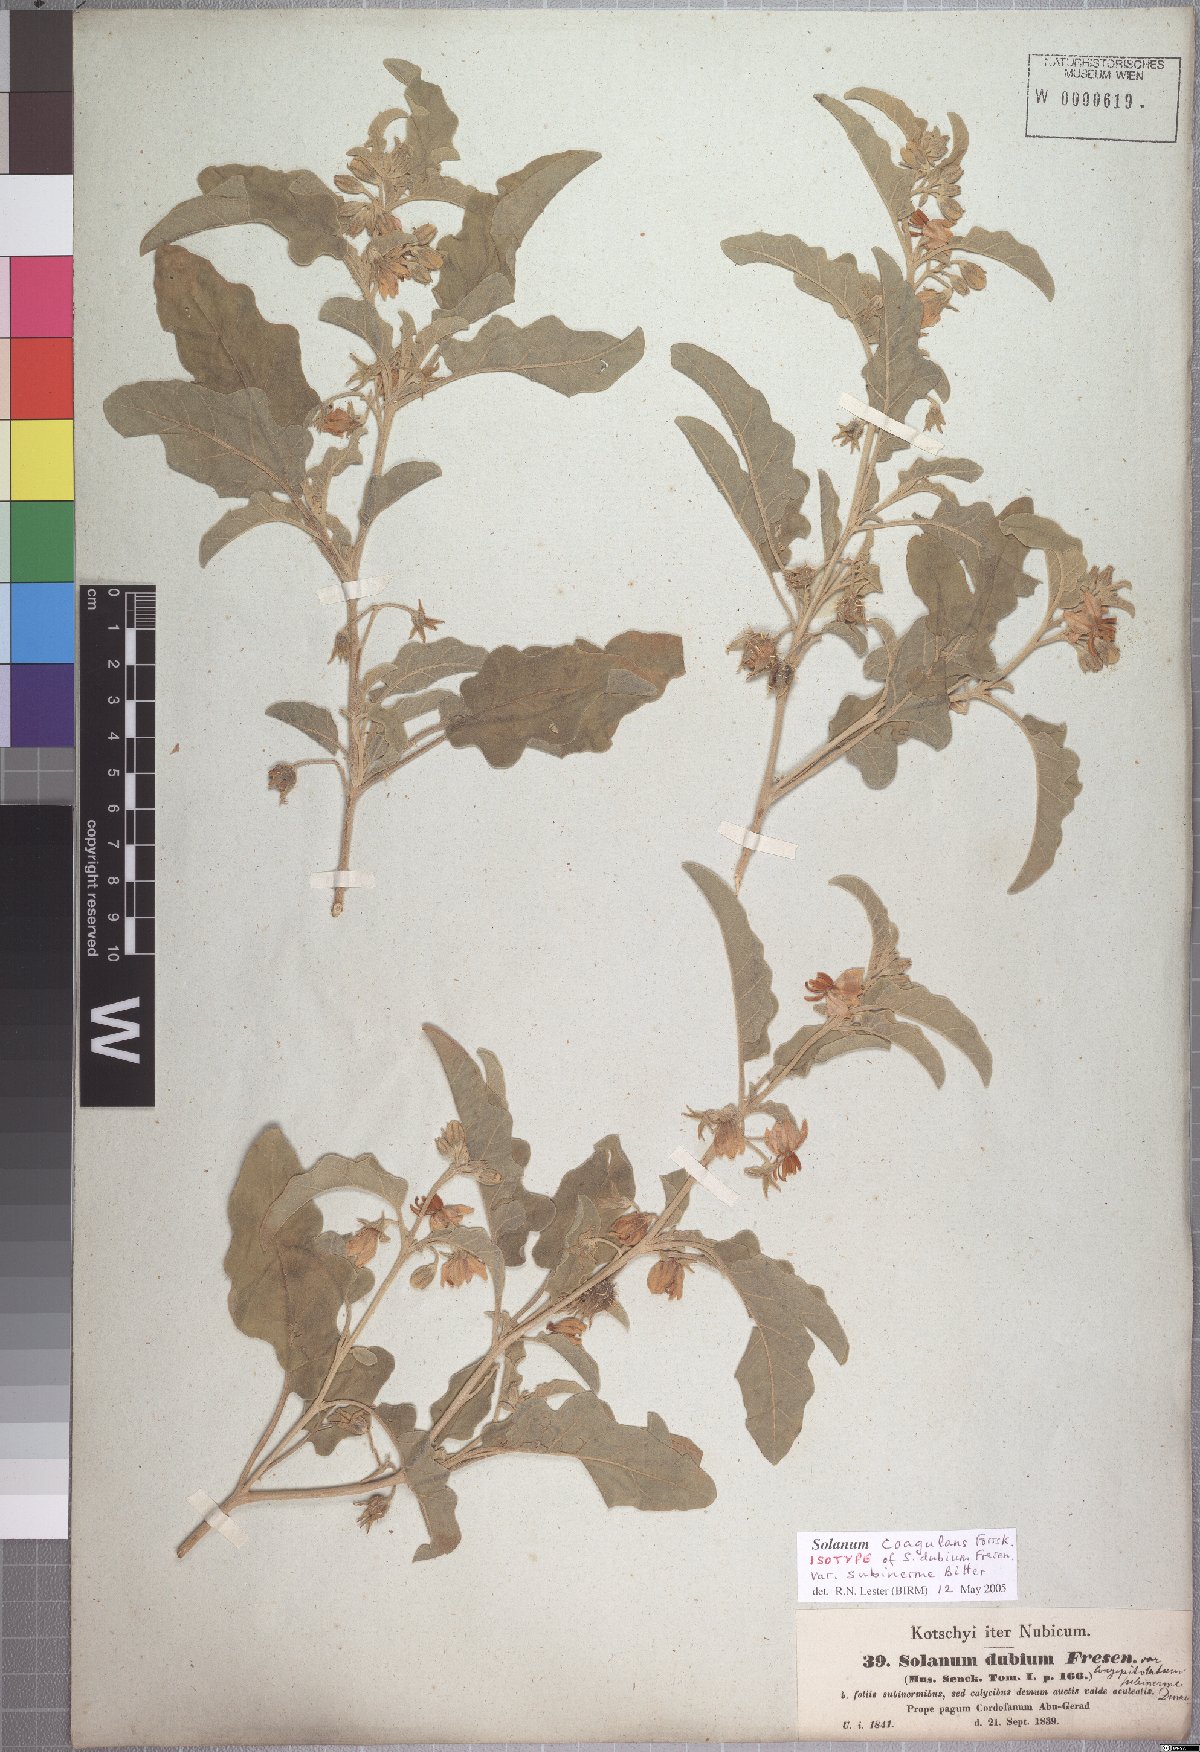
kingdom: Plantae
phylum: Tracheophyta
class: Magnoliopsida
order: Solanales
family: Solanaceae
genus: Solanum
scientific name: Solanum coagulans
